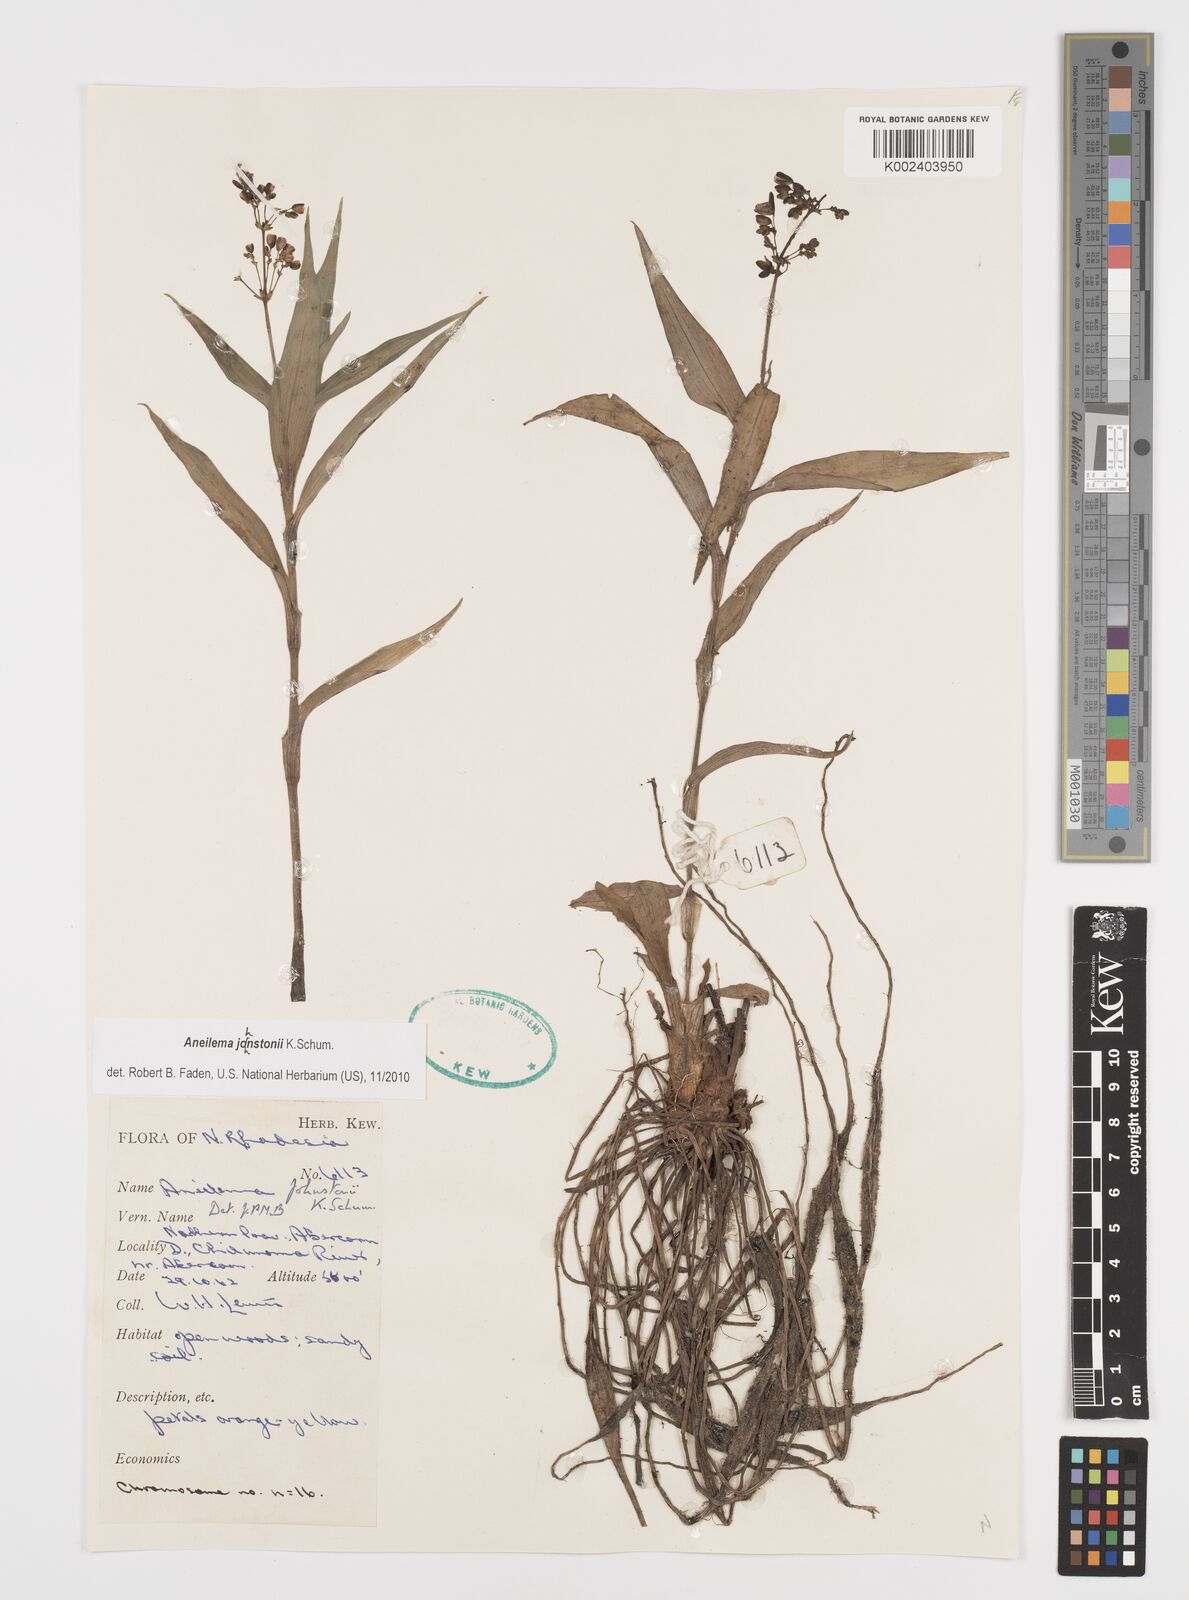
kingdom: Plantae
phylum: Tracheophyta
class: Liliopsida
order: Commelinales
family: Commelinaceae
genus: Aneilema
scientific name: Aneilema johnstonii
